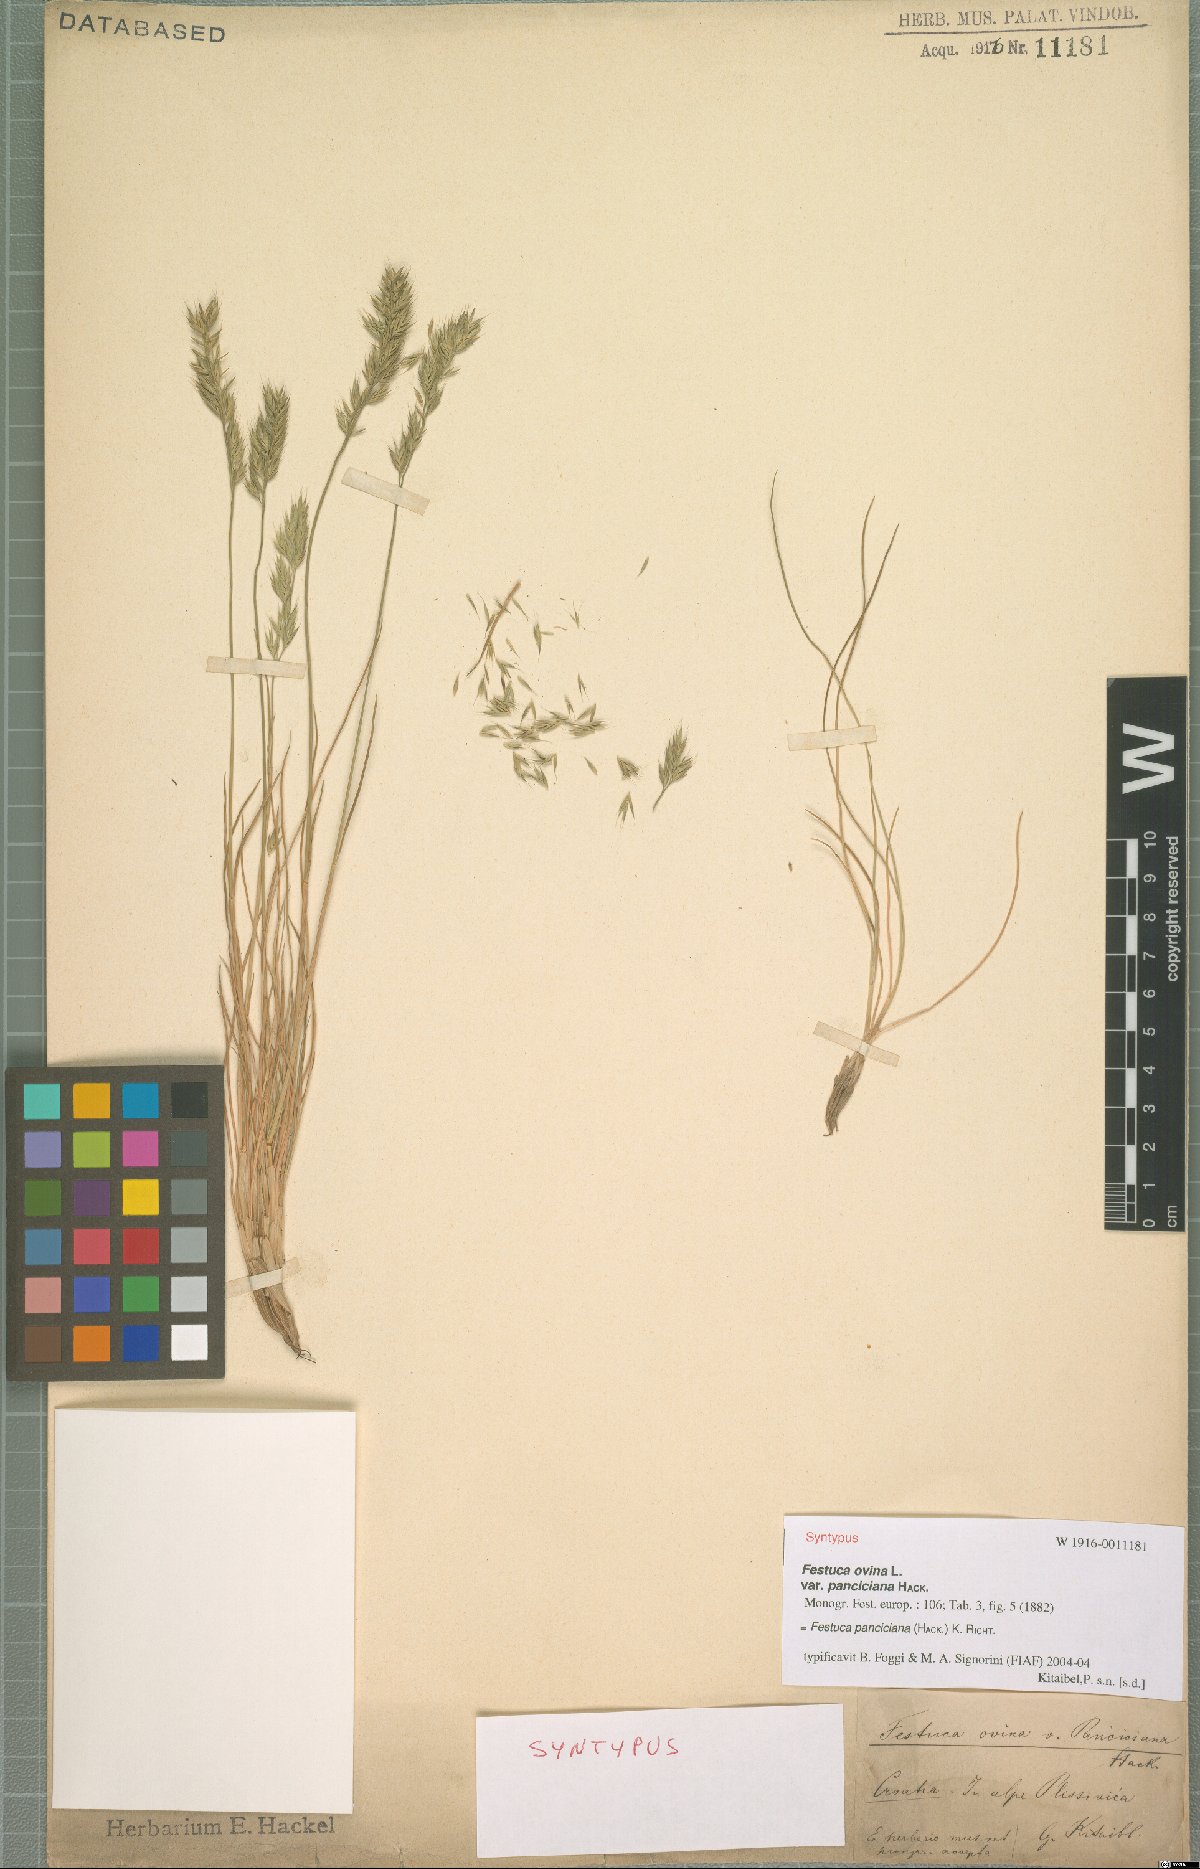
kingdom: Plantae
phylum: Tracheophyta
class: Liliopsida
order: Poales
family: Poaceae
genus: Festuca
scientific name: Festuca panciciana
